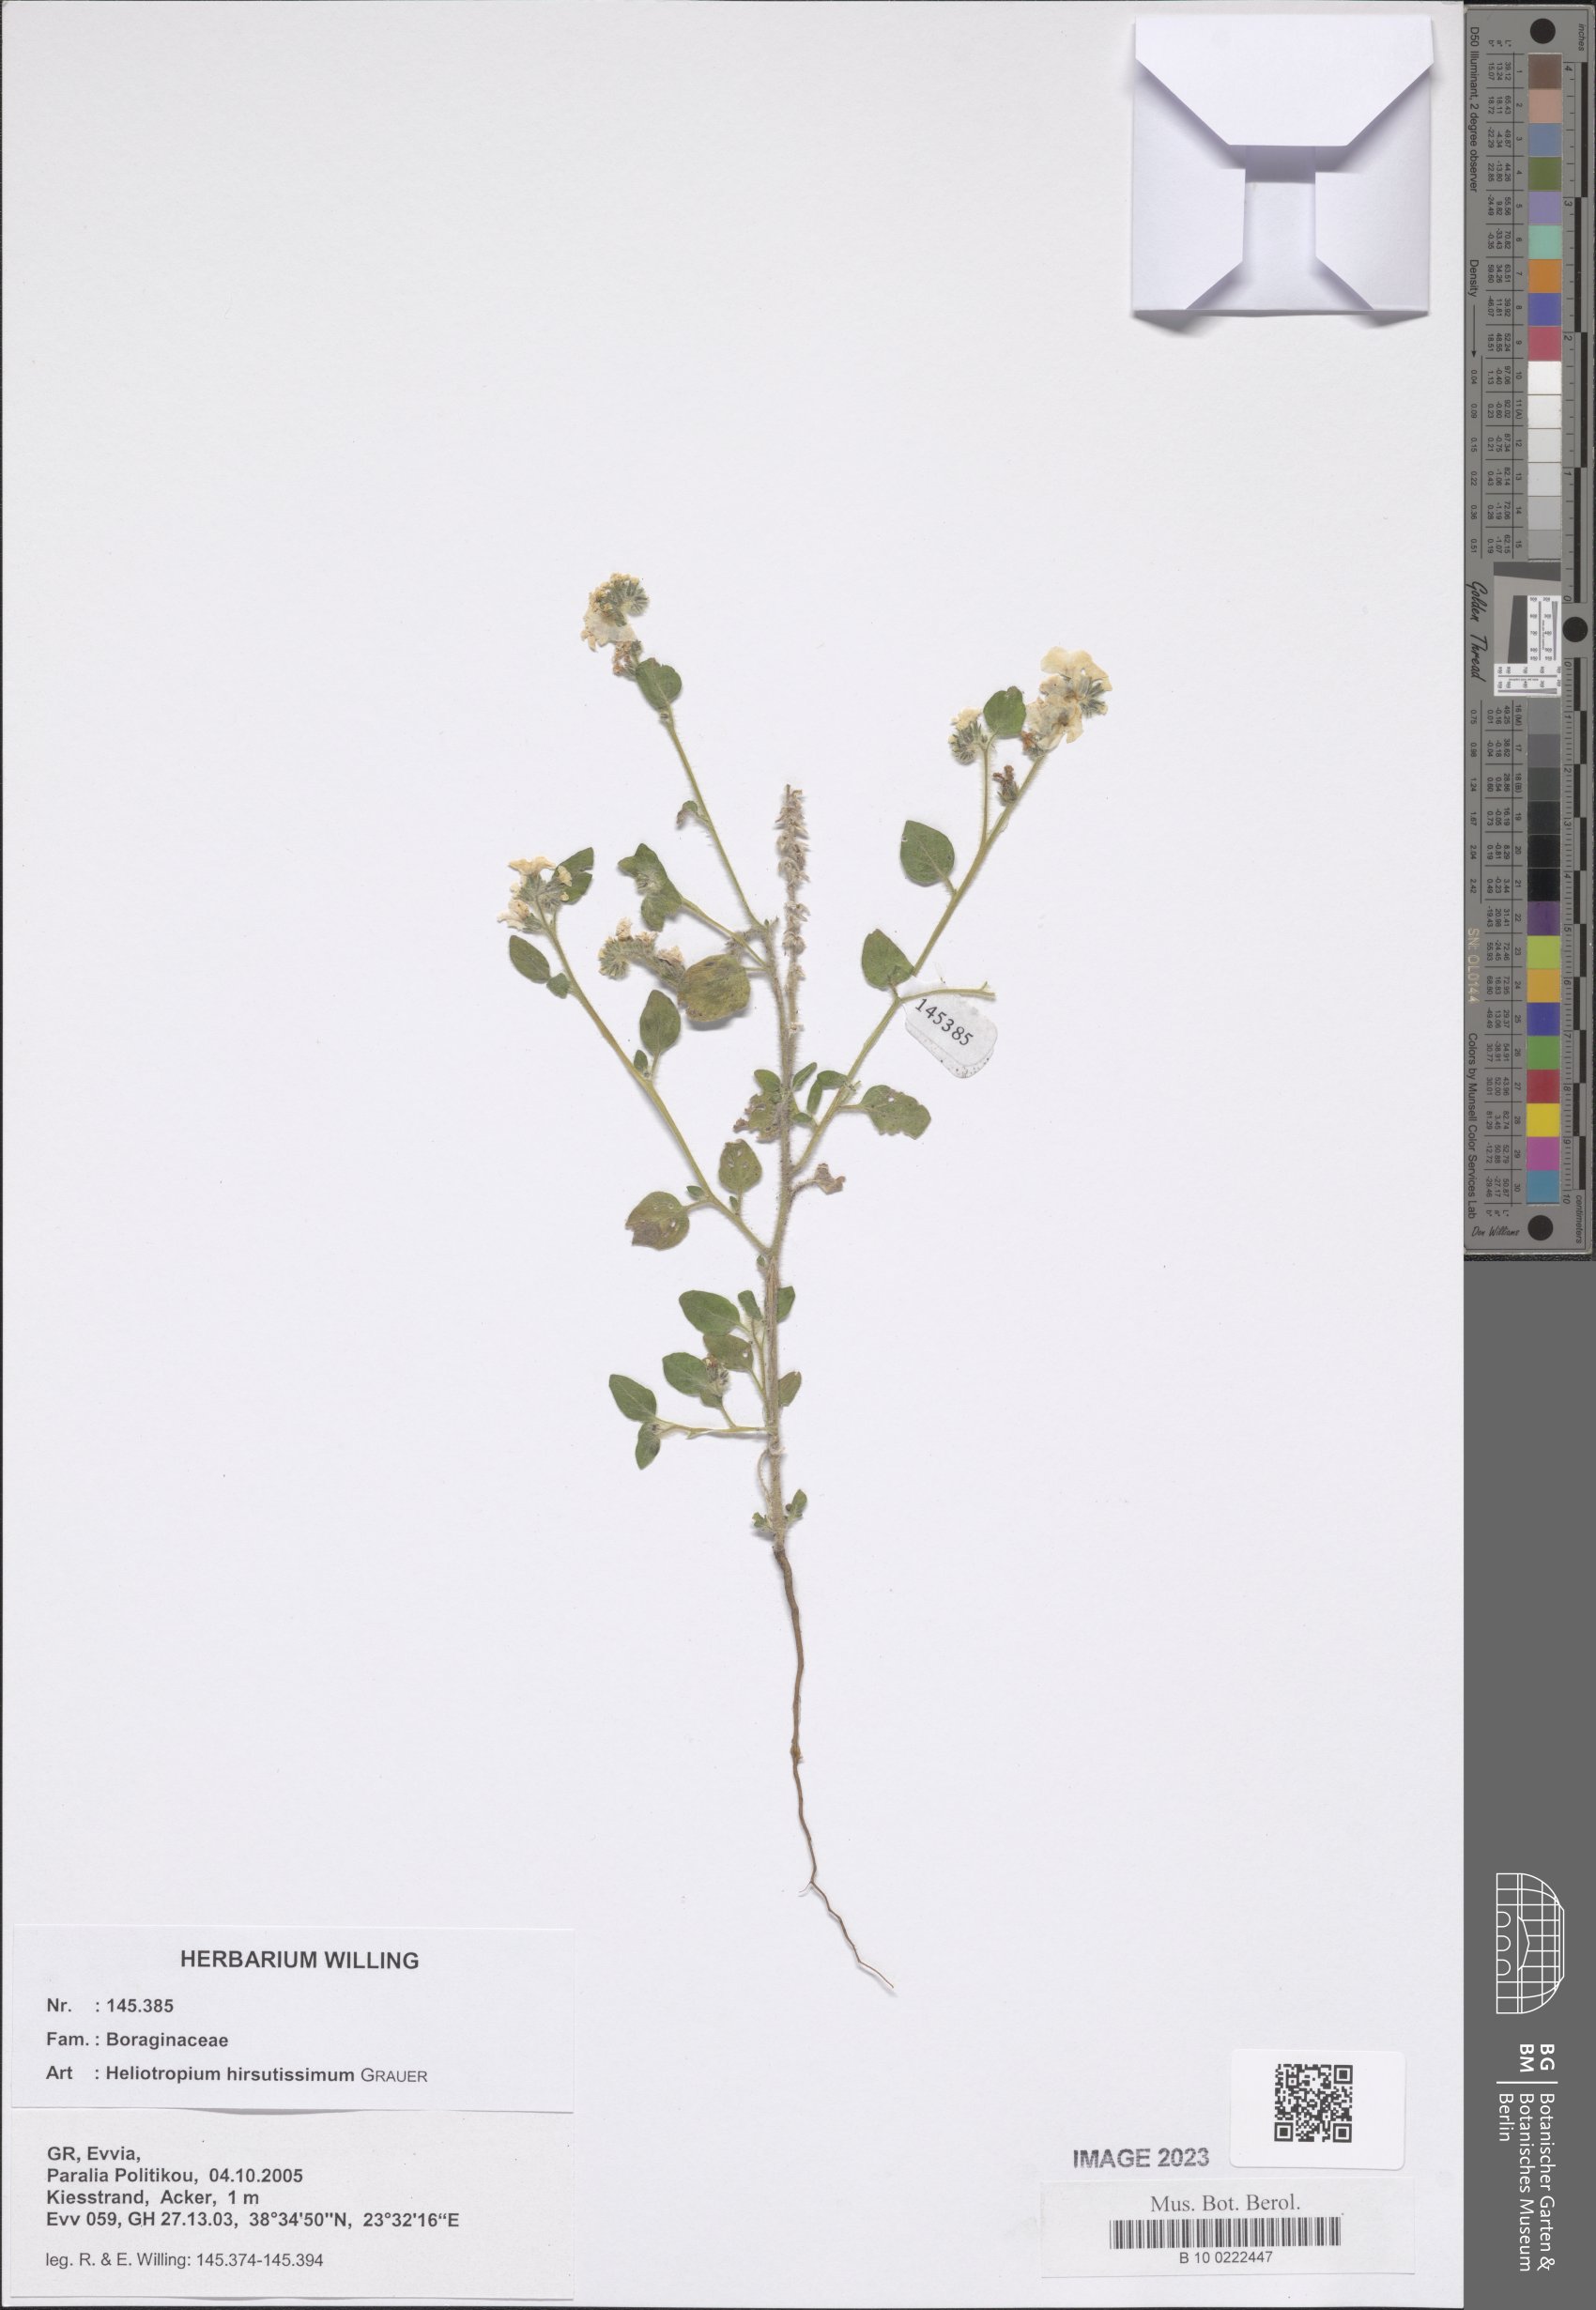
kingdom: Plantae
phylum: Tracheophyta
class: Magnoliopsida
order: Boraginales
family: Heliotropiaceae
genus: Heliotropium
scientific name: Heliotropium hirsutissimum
